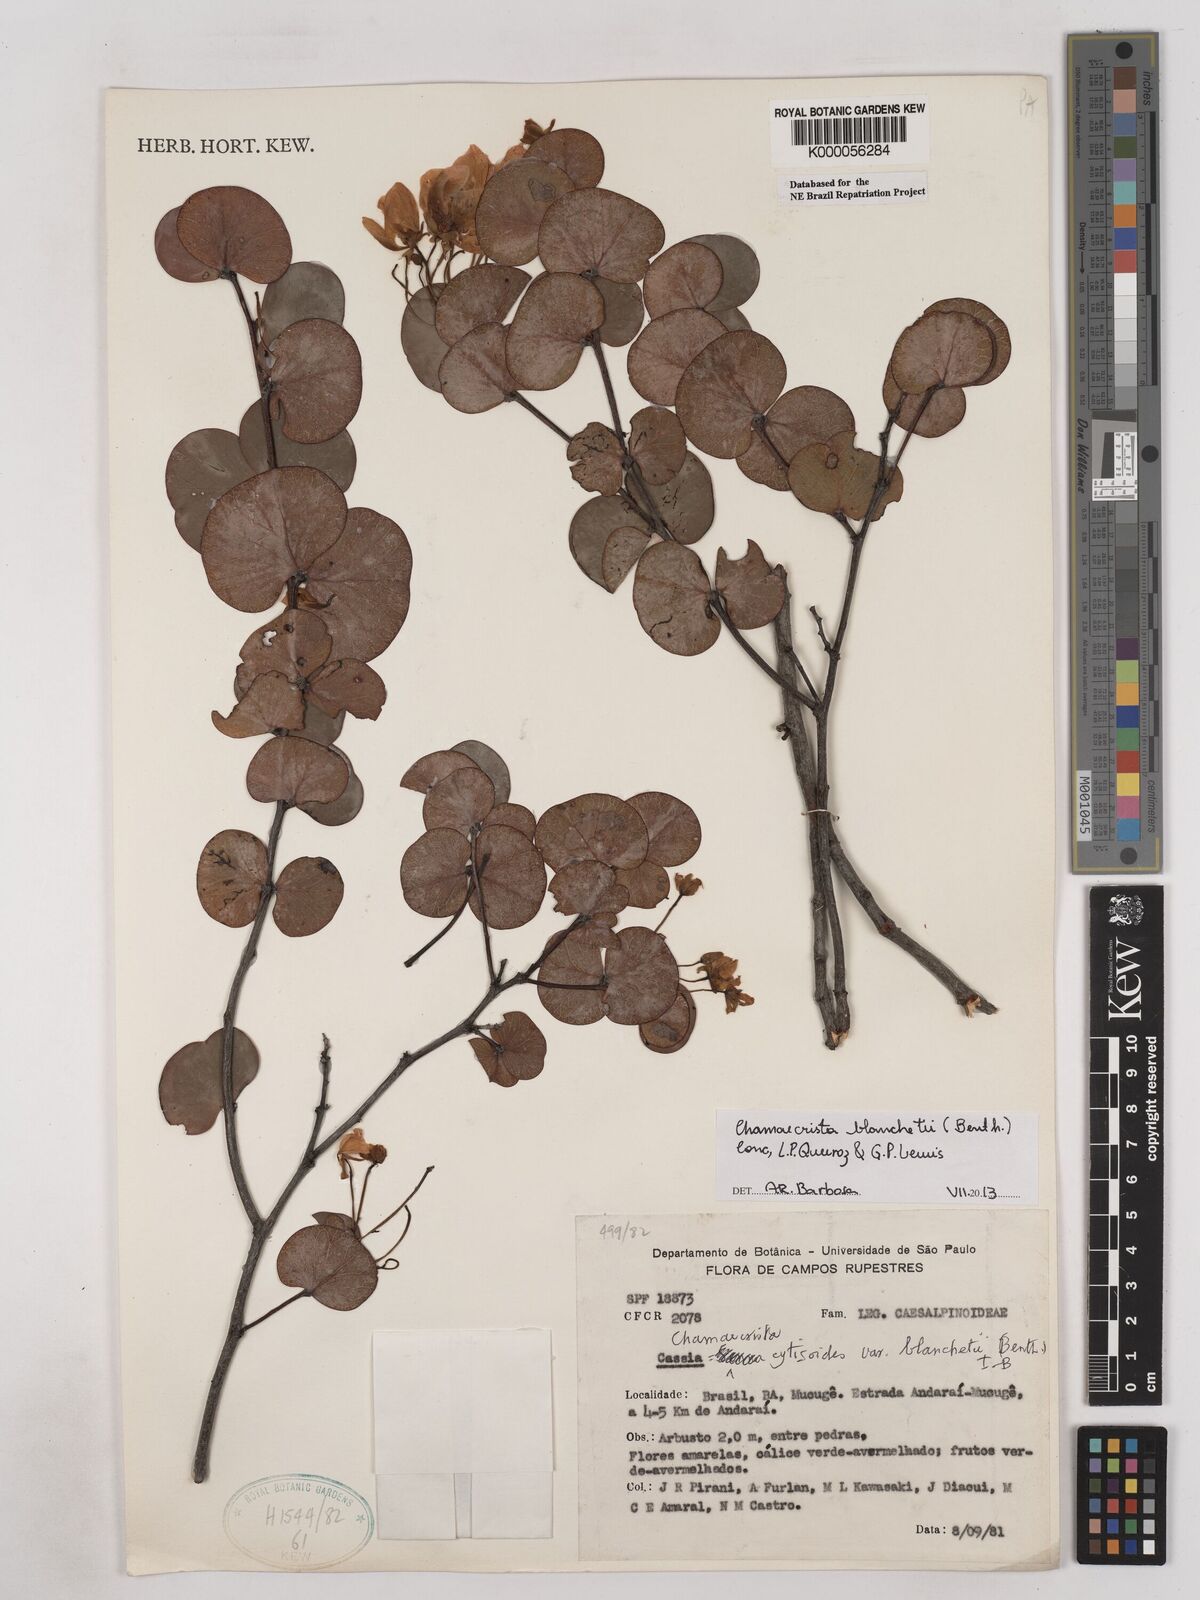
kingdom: Plantae
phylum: Tracheophyta
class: Magnoliopsida
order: Fabales
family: Fabaceae
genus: Chamaecrista
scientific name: Chamaecrista cytisoides
